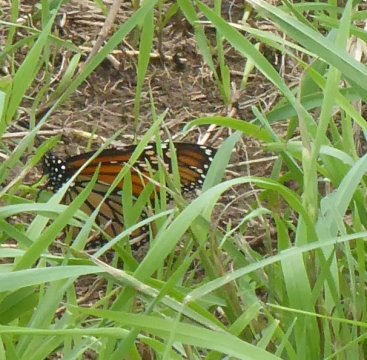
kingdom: Animalia
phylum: Arthropoda
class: Insecta
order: Lepidoptera
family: Nymphalidae
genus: Danaus
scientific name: Danaus plexippus
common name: Monarch
